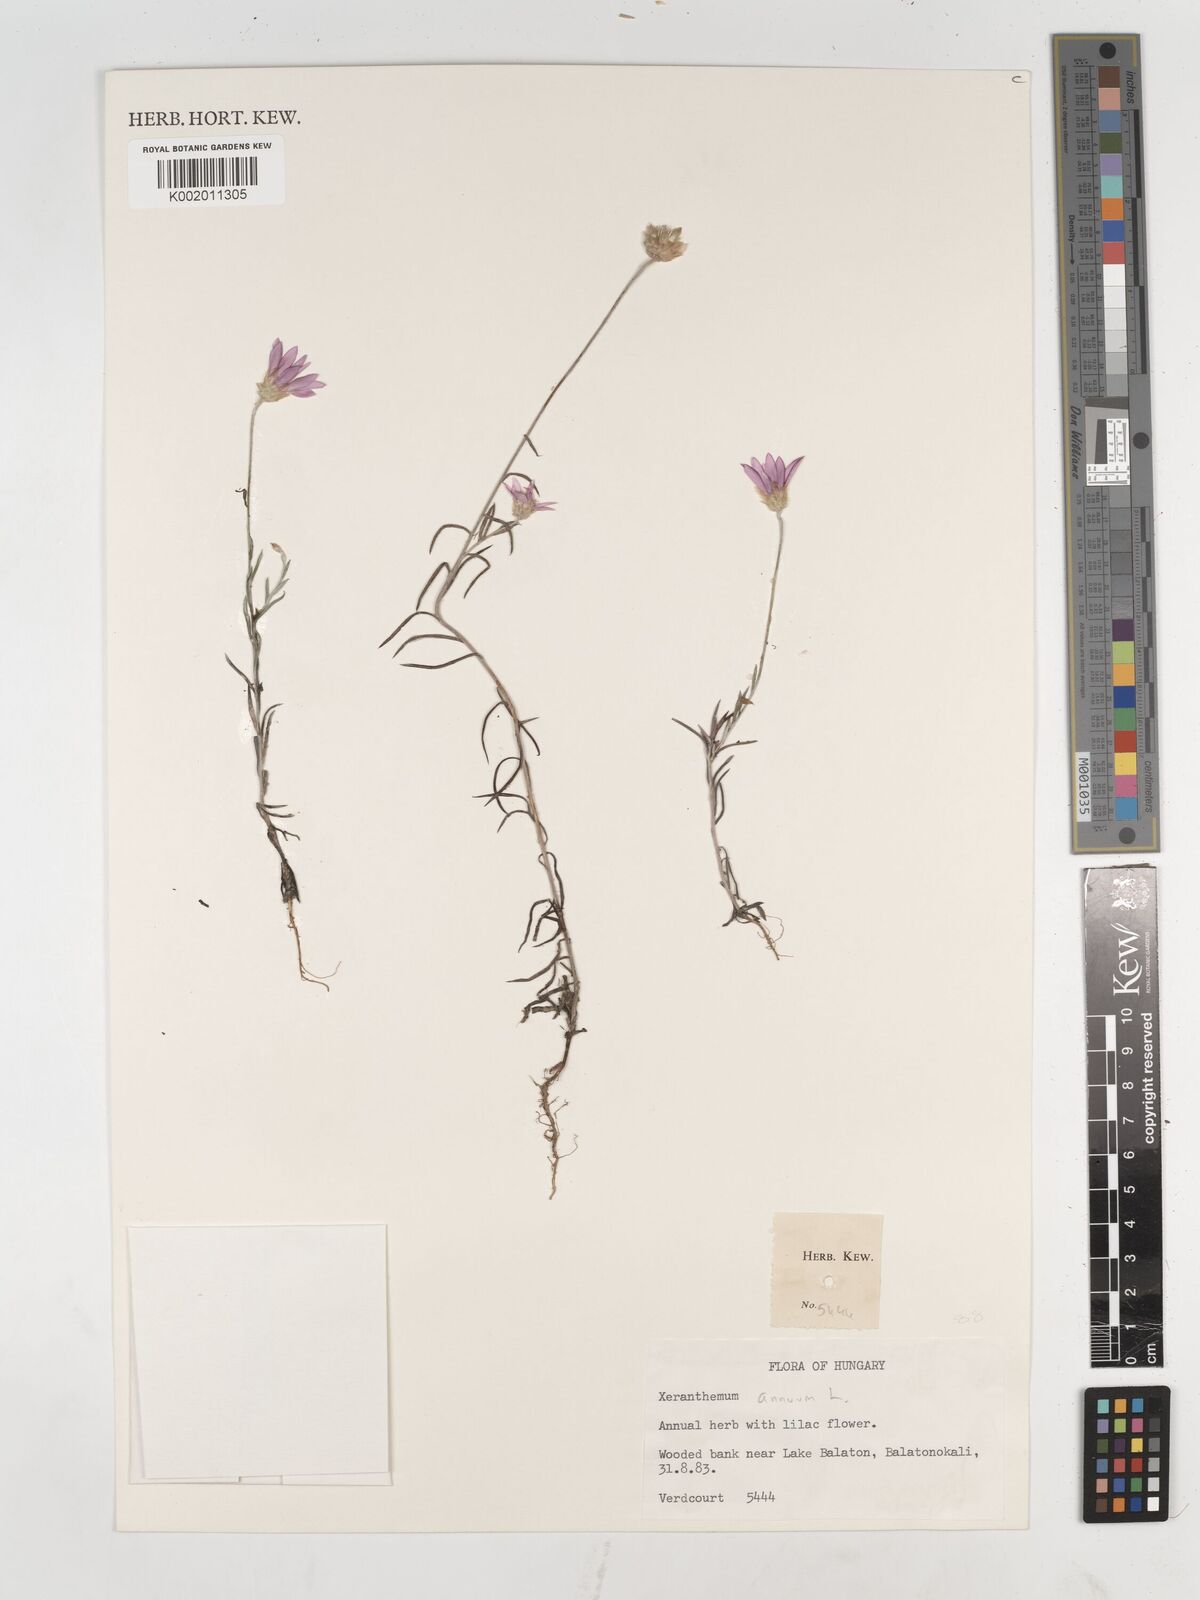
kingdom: Plantae
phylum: Tracheophyta
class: Magnoliopsida
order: Asterales
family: Asteraceae
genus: Xeranthemum
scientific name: Xeranthemum annuum
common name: Immortelle
